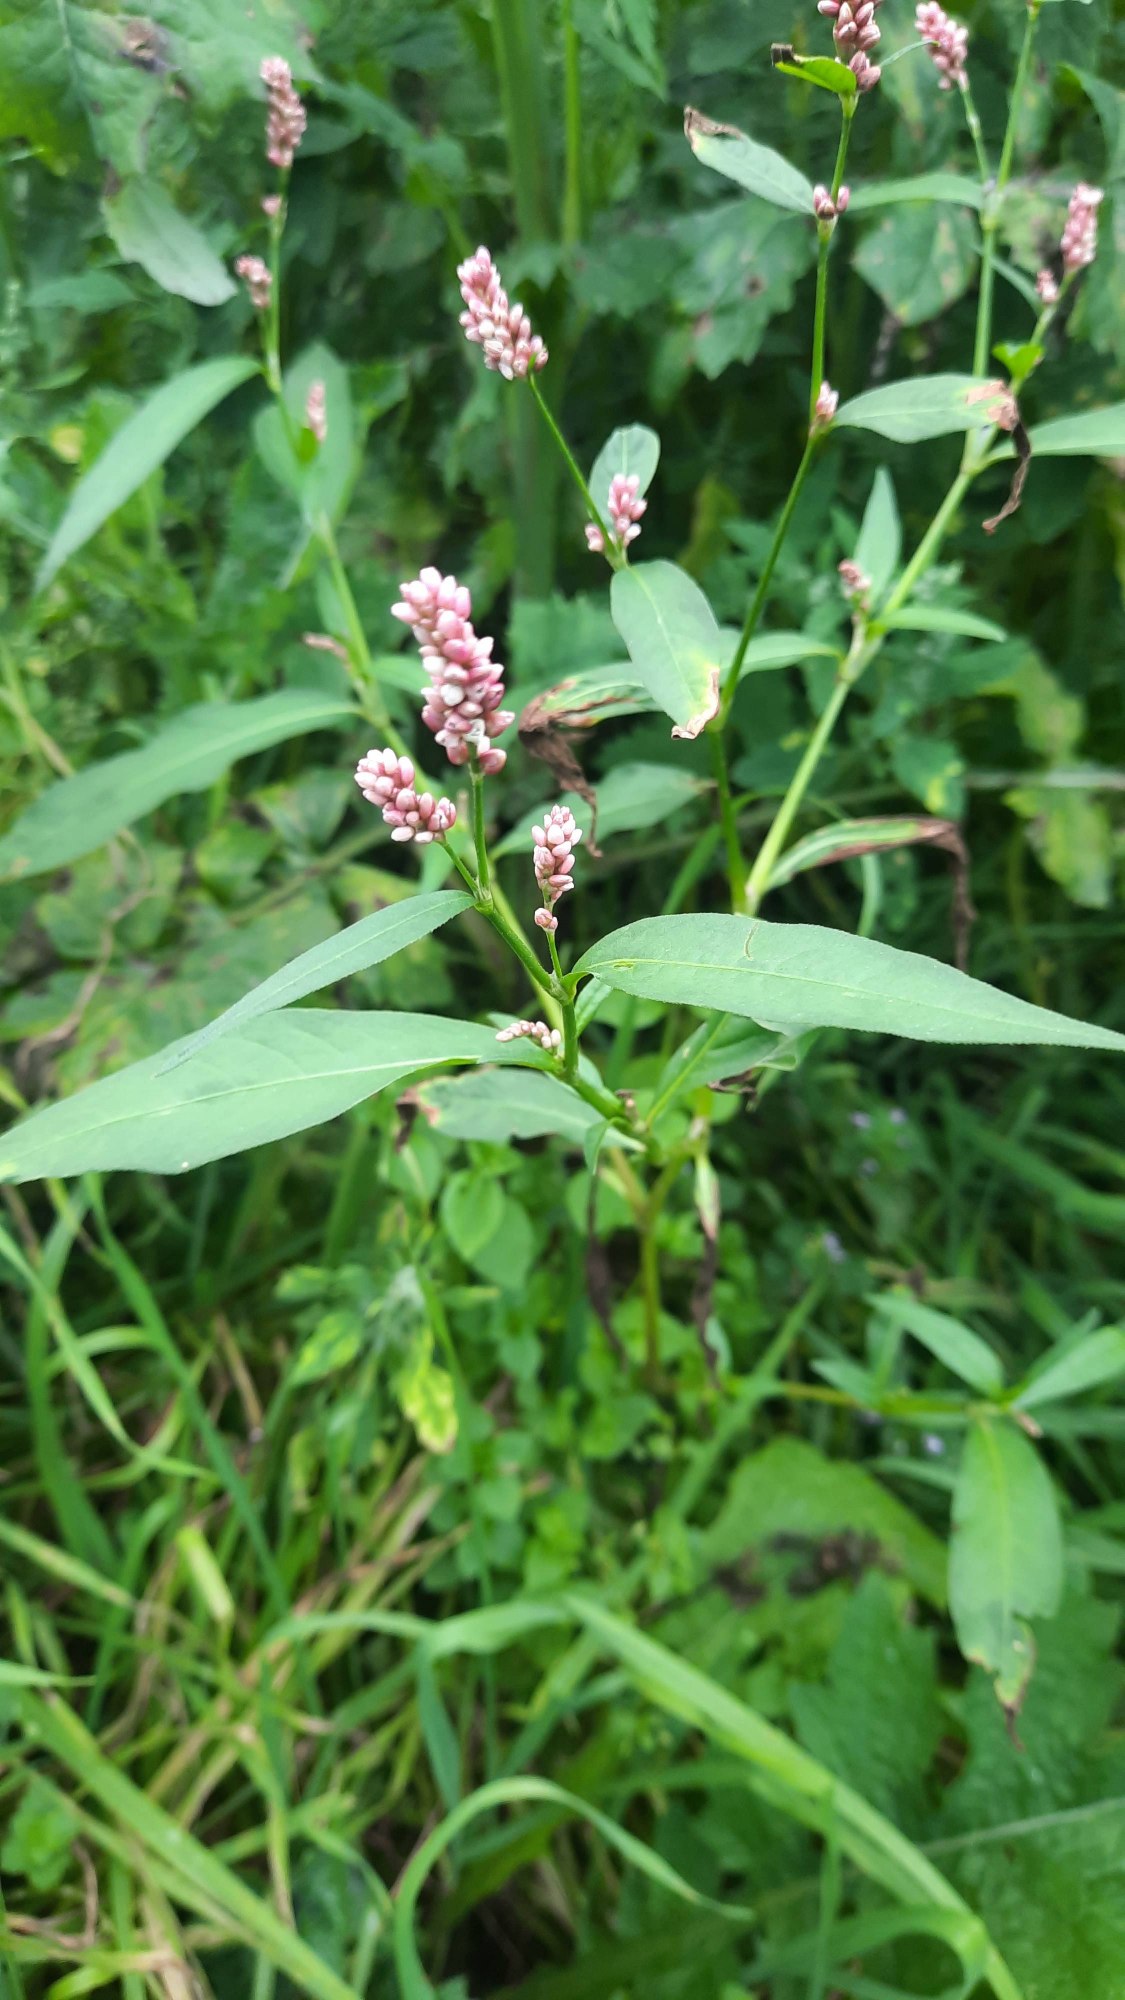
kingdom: Plantae
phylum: Tracheophyta
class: Magnoliopsida
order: Caryophyllales
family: Polygonaceae
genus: Persicaria
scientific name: Persicaria maculosa
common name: Fersken-pileurt
